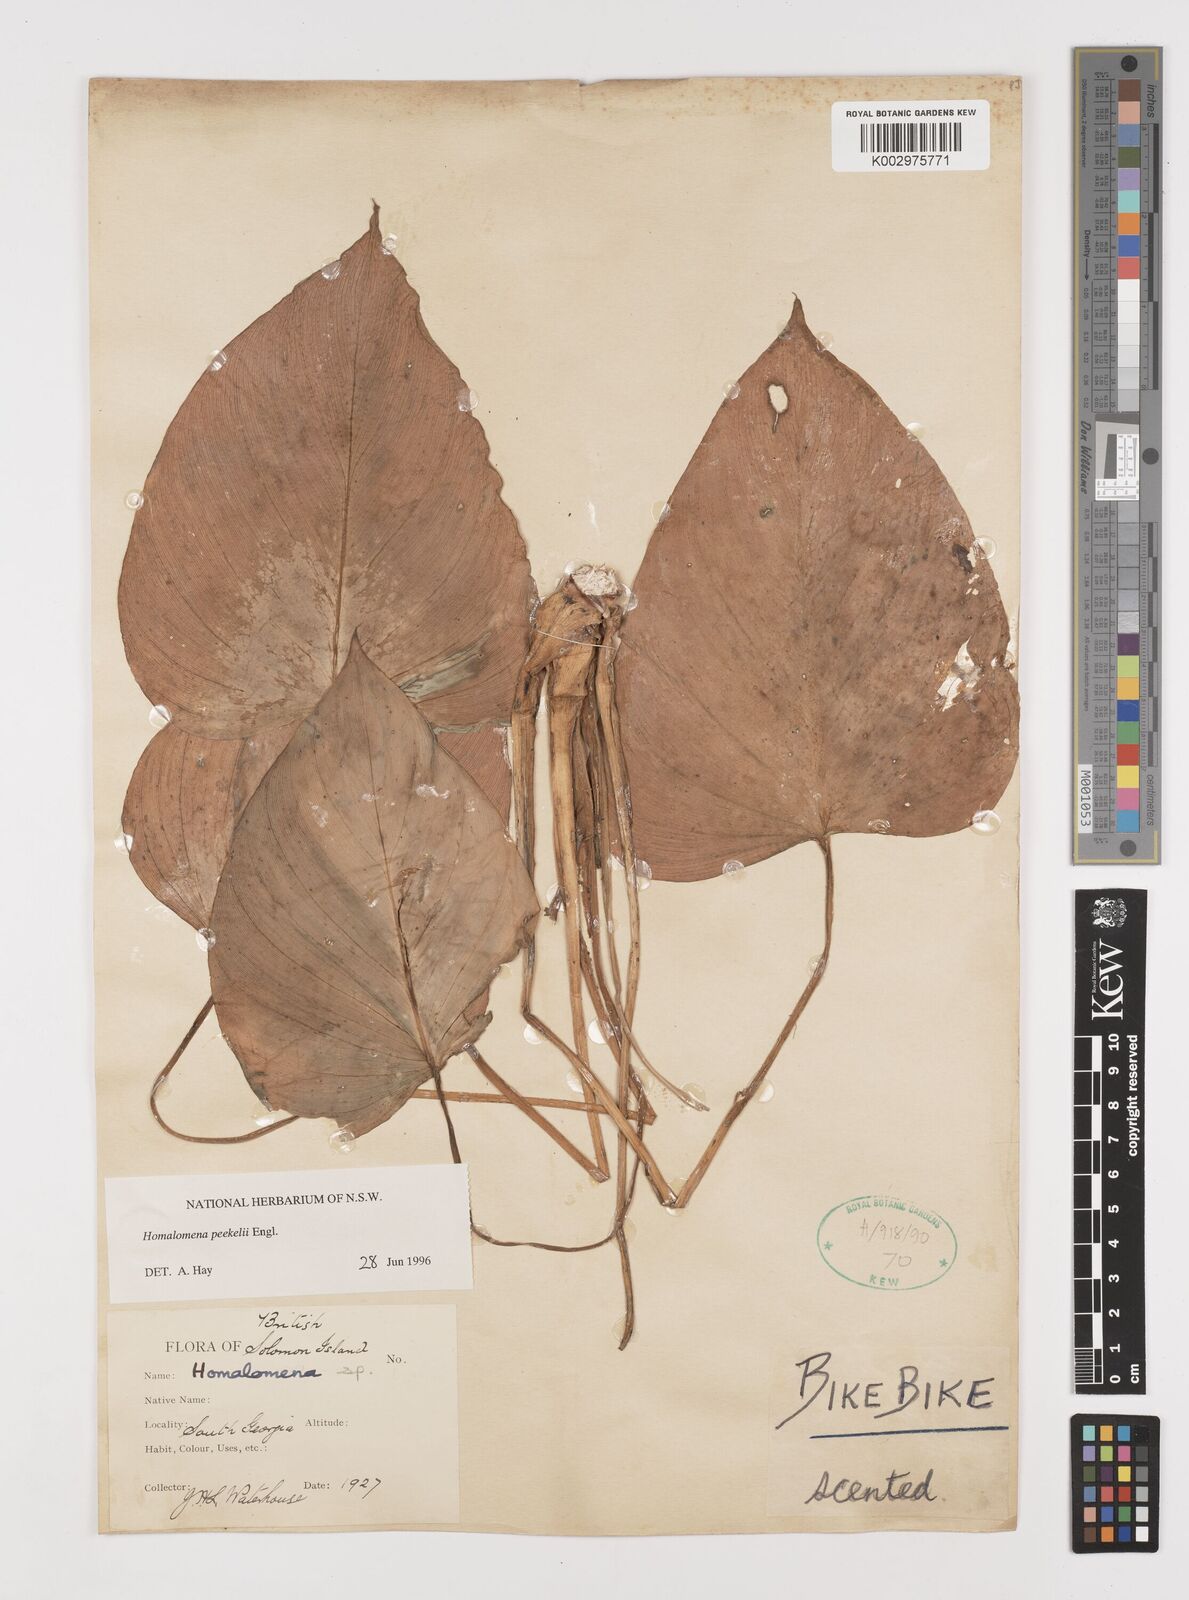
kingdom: Plantae
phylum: Tracheophyta
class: Liliopsida
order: Alismatales
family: Araceae
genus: Homalomena
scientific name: Homalomena peekelii
